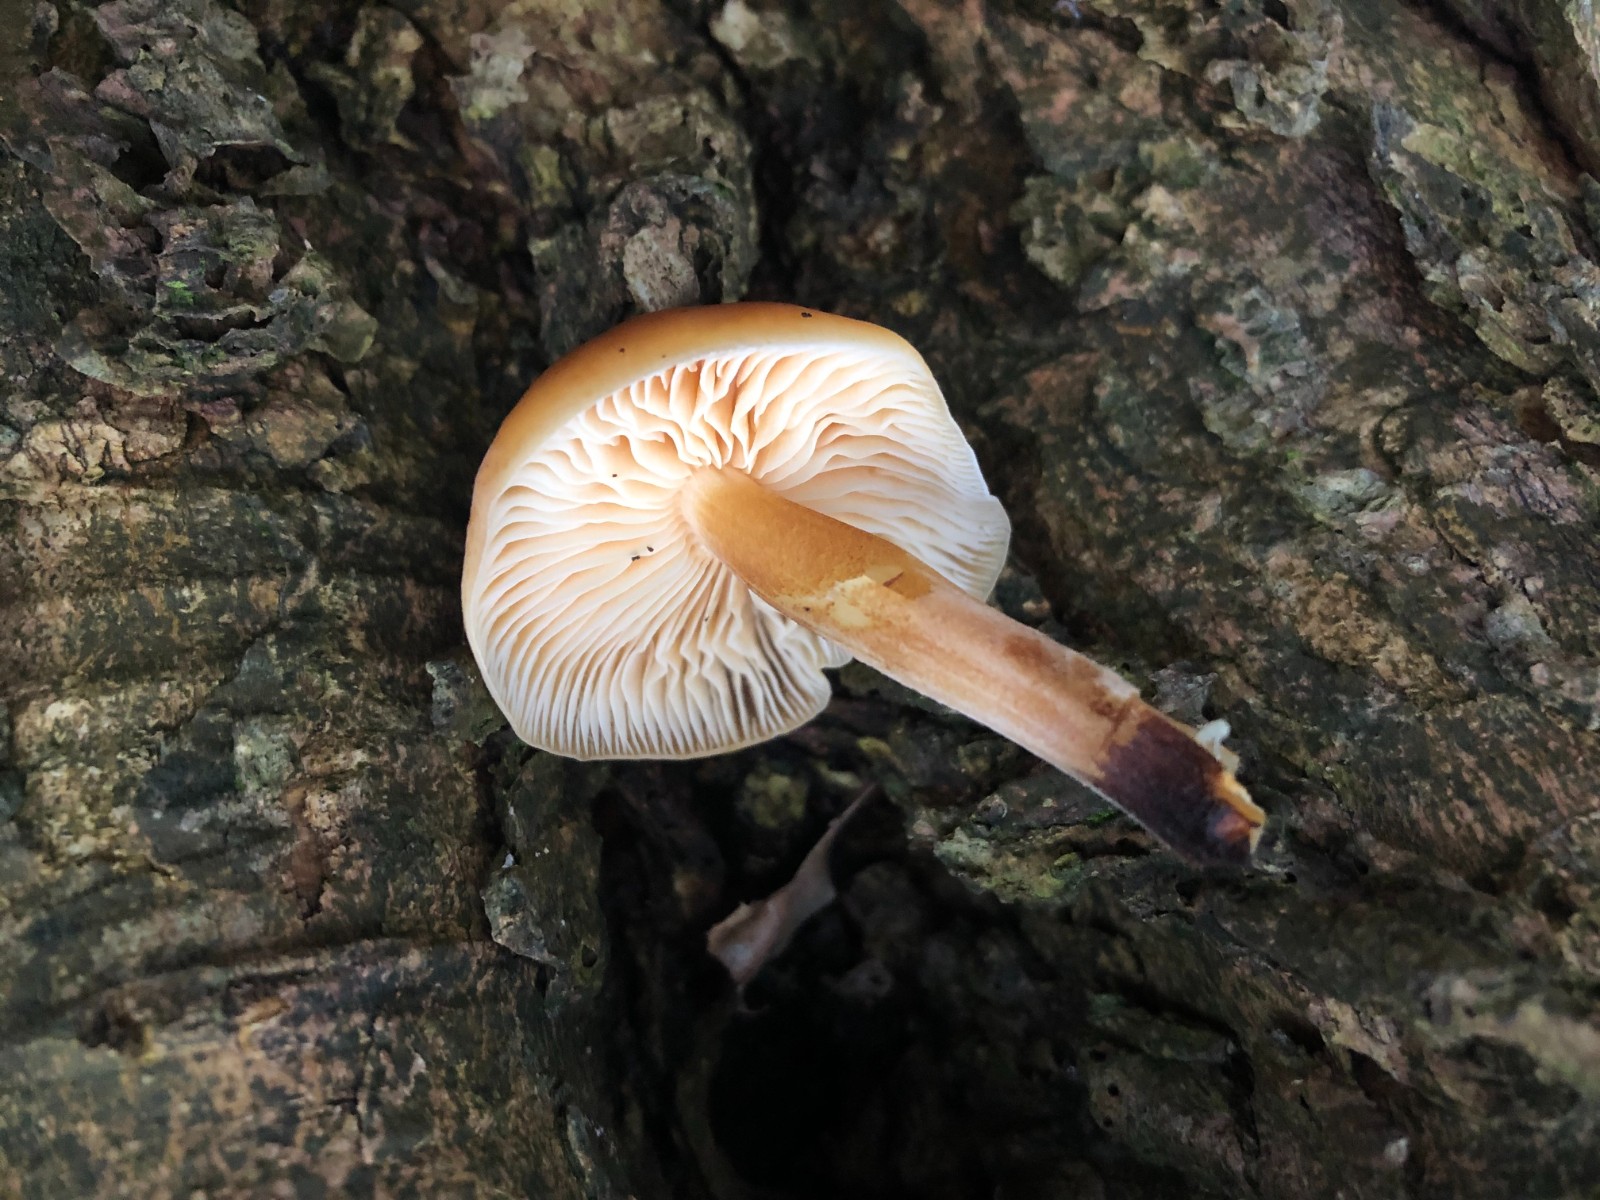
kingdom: Fungi
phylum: Basidiomycota
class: Agaricomycetes
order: Agaricales
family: Physalacriaceae
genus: Flammulina
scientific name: Flammulina
